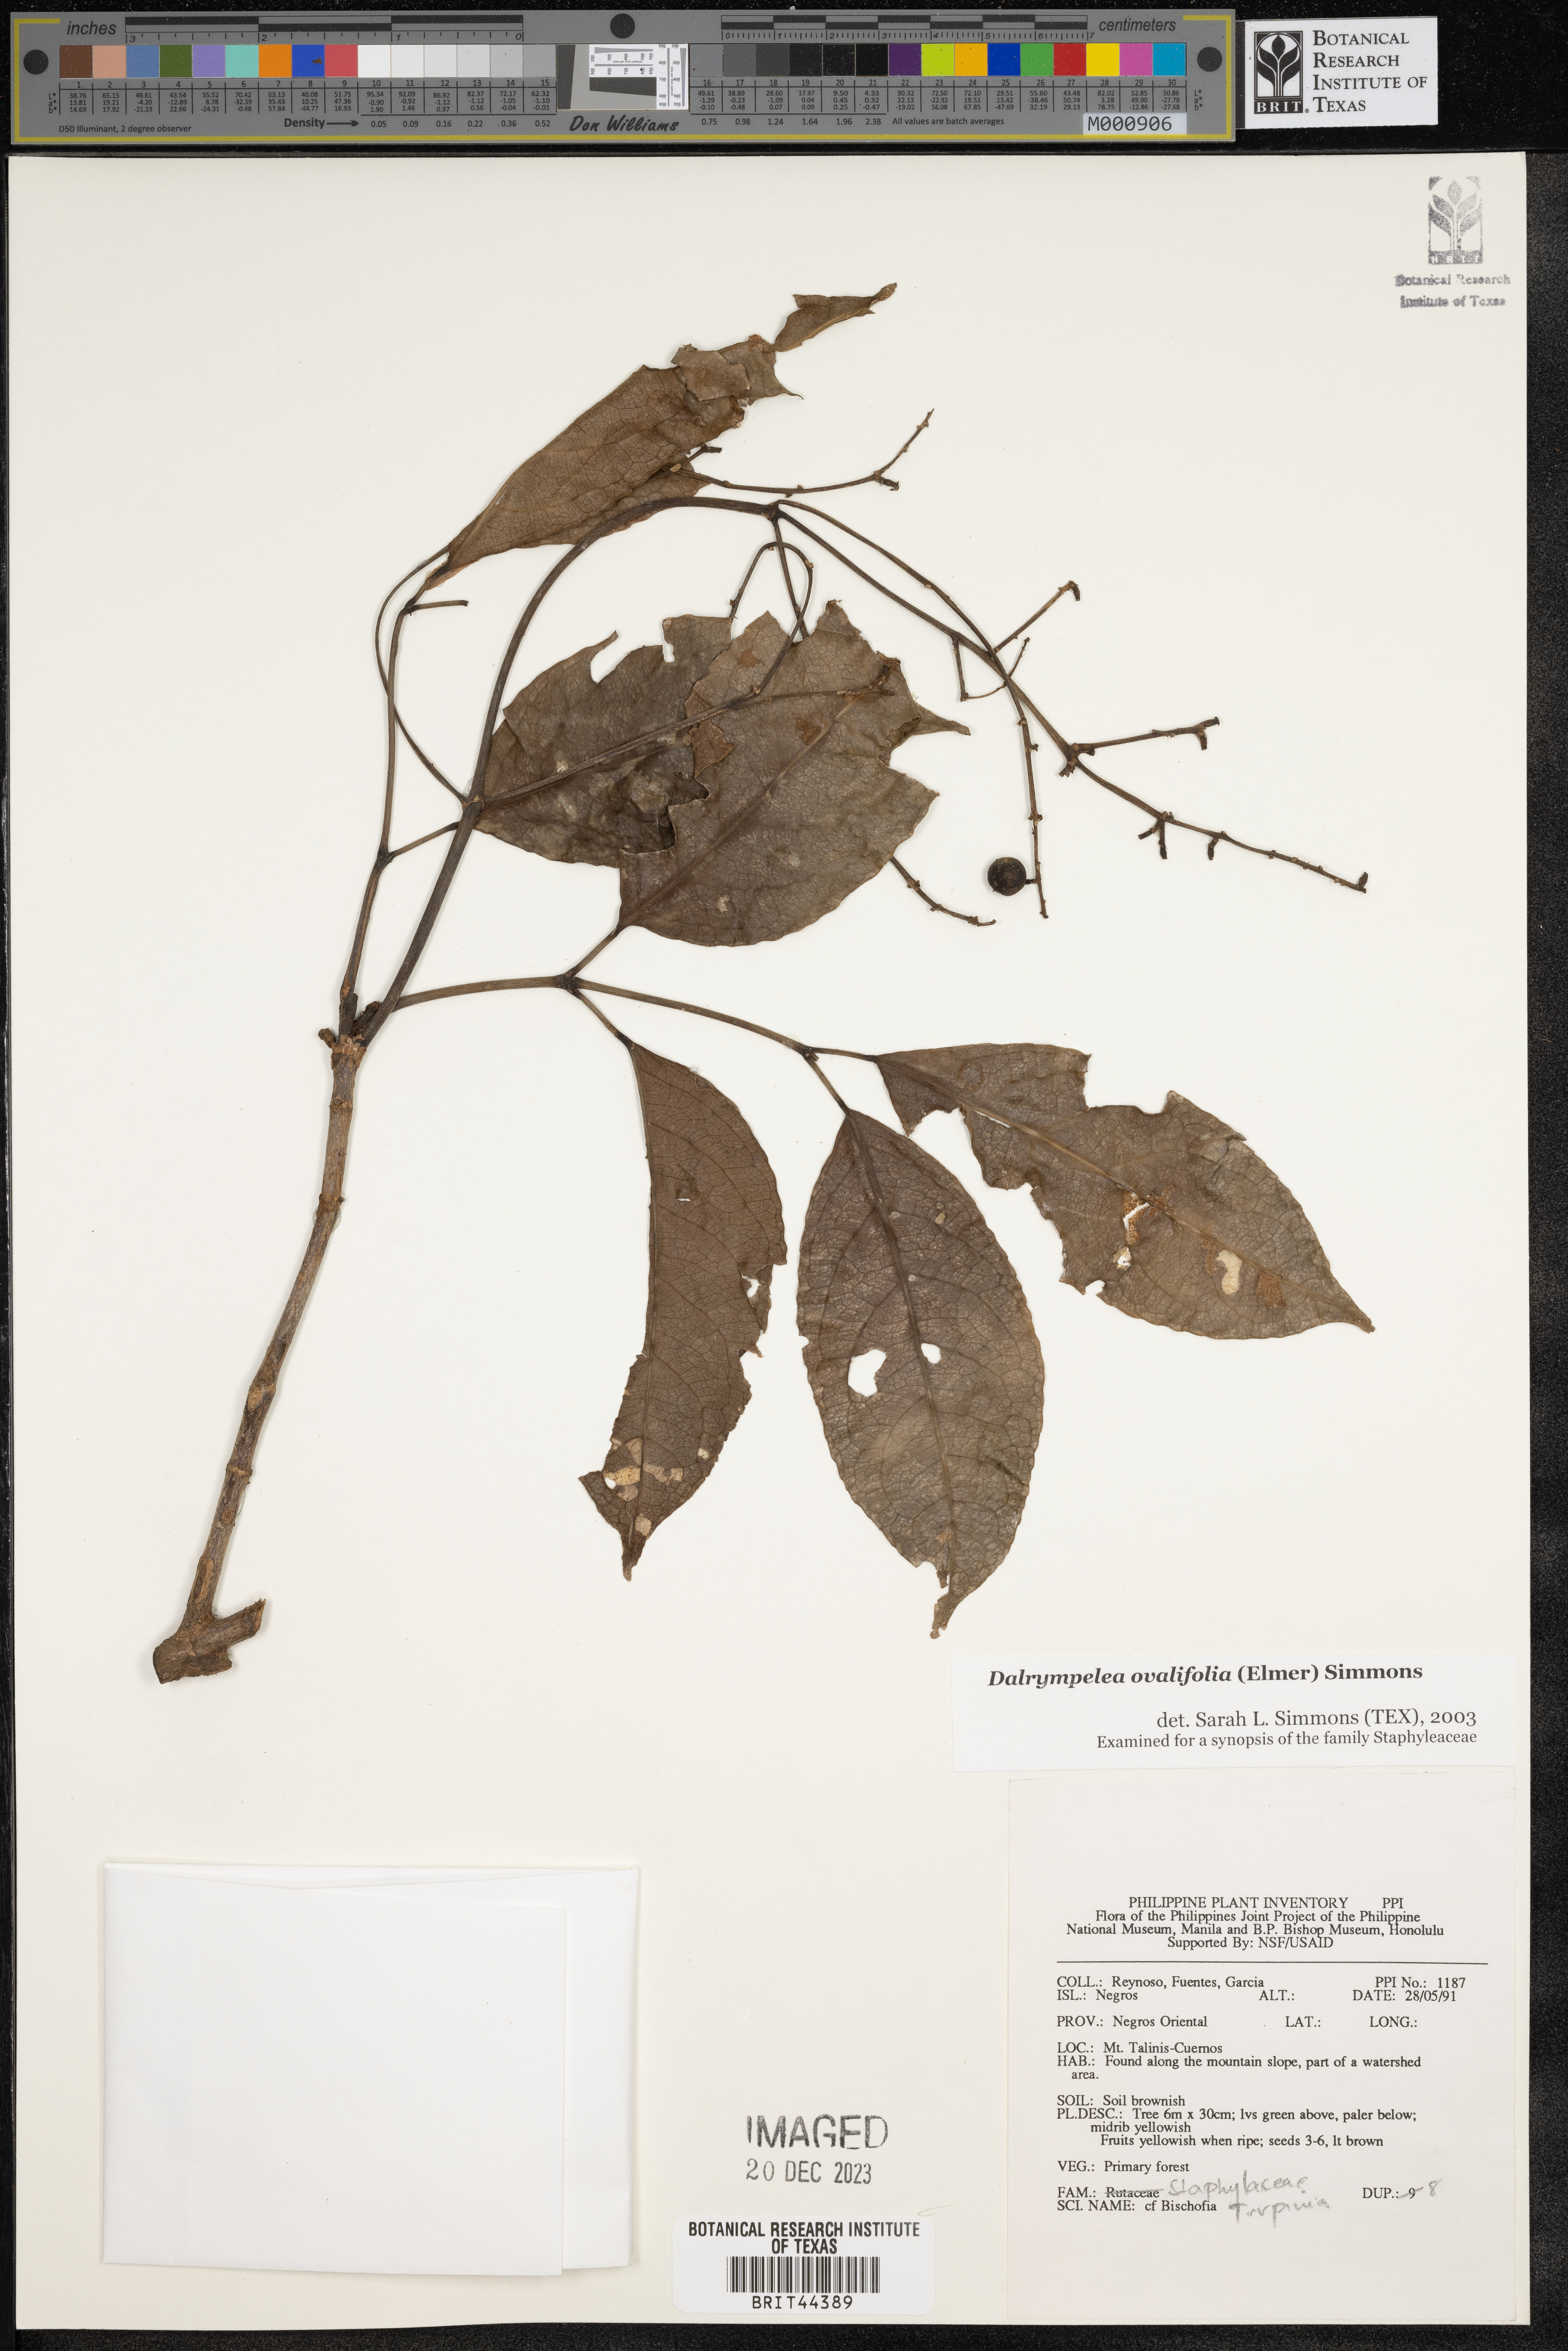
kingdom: Plantae
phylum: Tracheophyta
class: Magnoliopsida
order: Crossosomatales
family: Staphyleaceae
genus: Dalrympelea
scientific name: Dalrympelea
